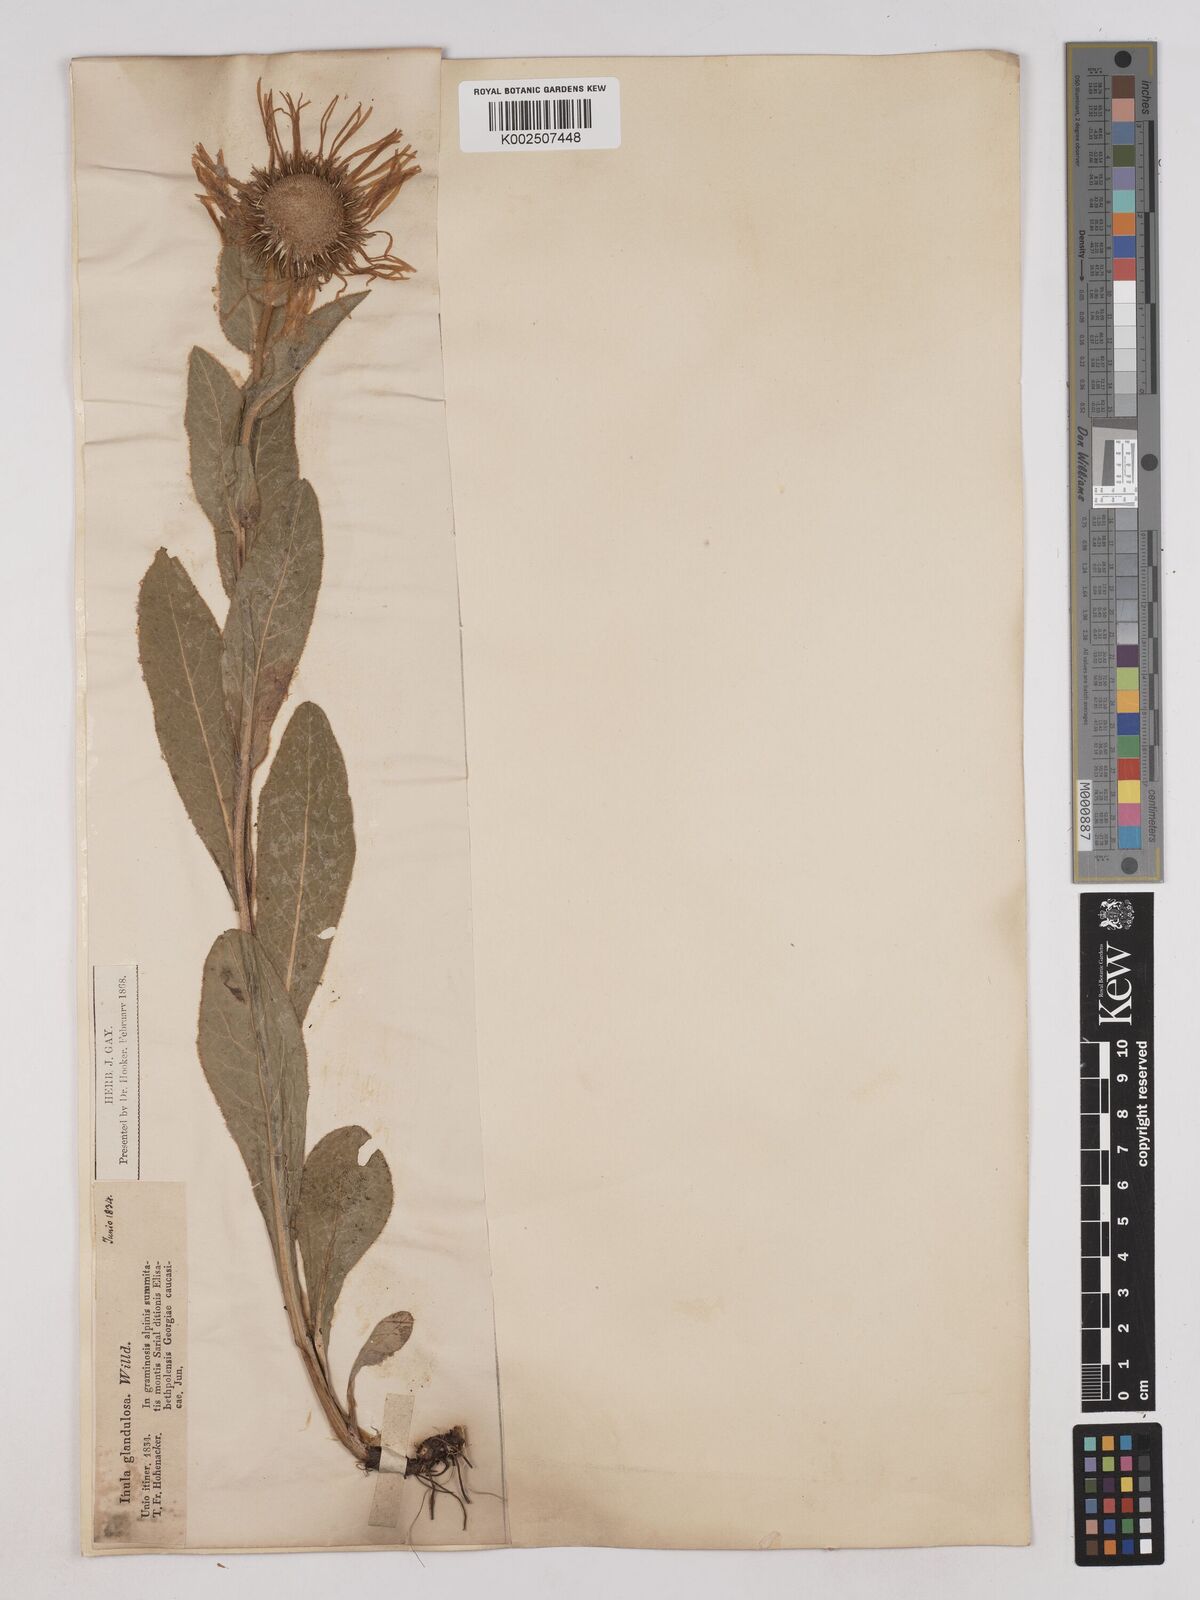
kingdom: Plantae
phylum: Tracheophyta
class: Magnoliopsida
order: Asterales
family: Asteraceae
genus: Pentanema
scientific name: Pentanema orientale
